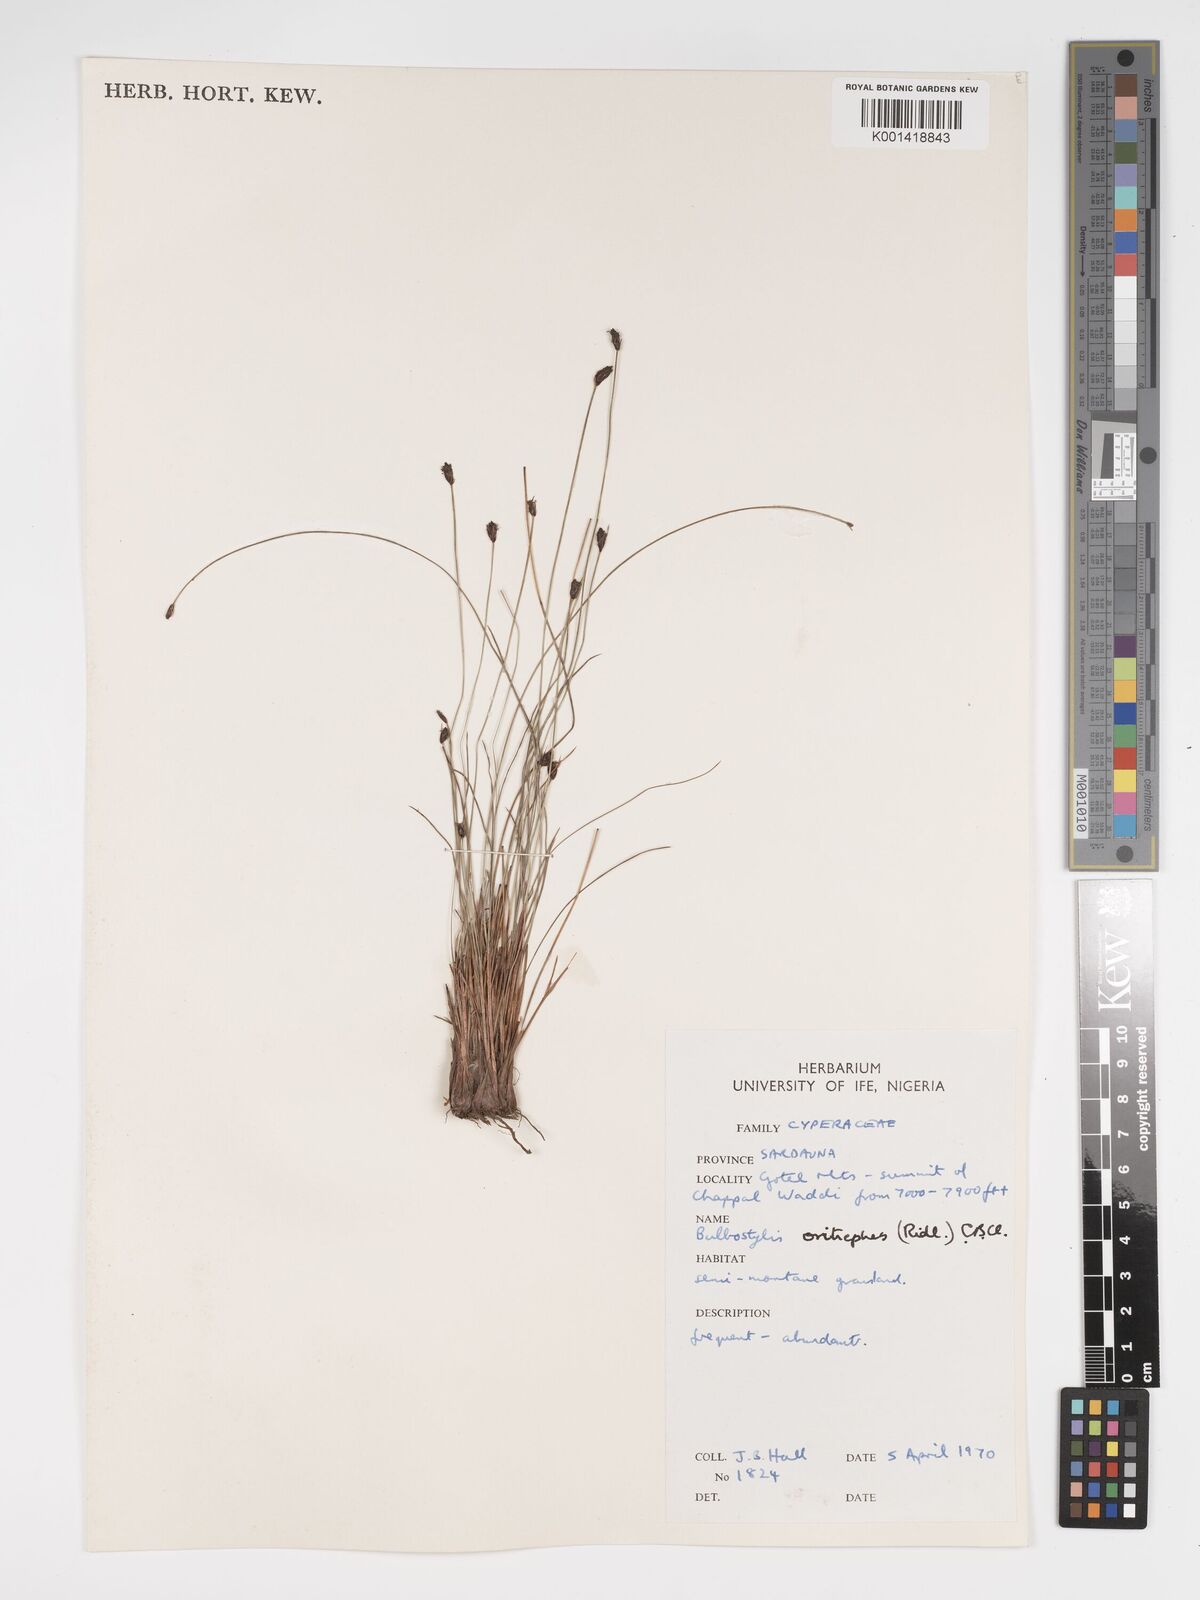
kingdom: Plantae
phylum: Tracheophyta
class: Liliopsida
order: Poales
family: Cyperaceae
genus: Bulbostylis
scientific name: Bulbostylis oritrephes
